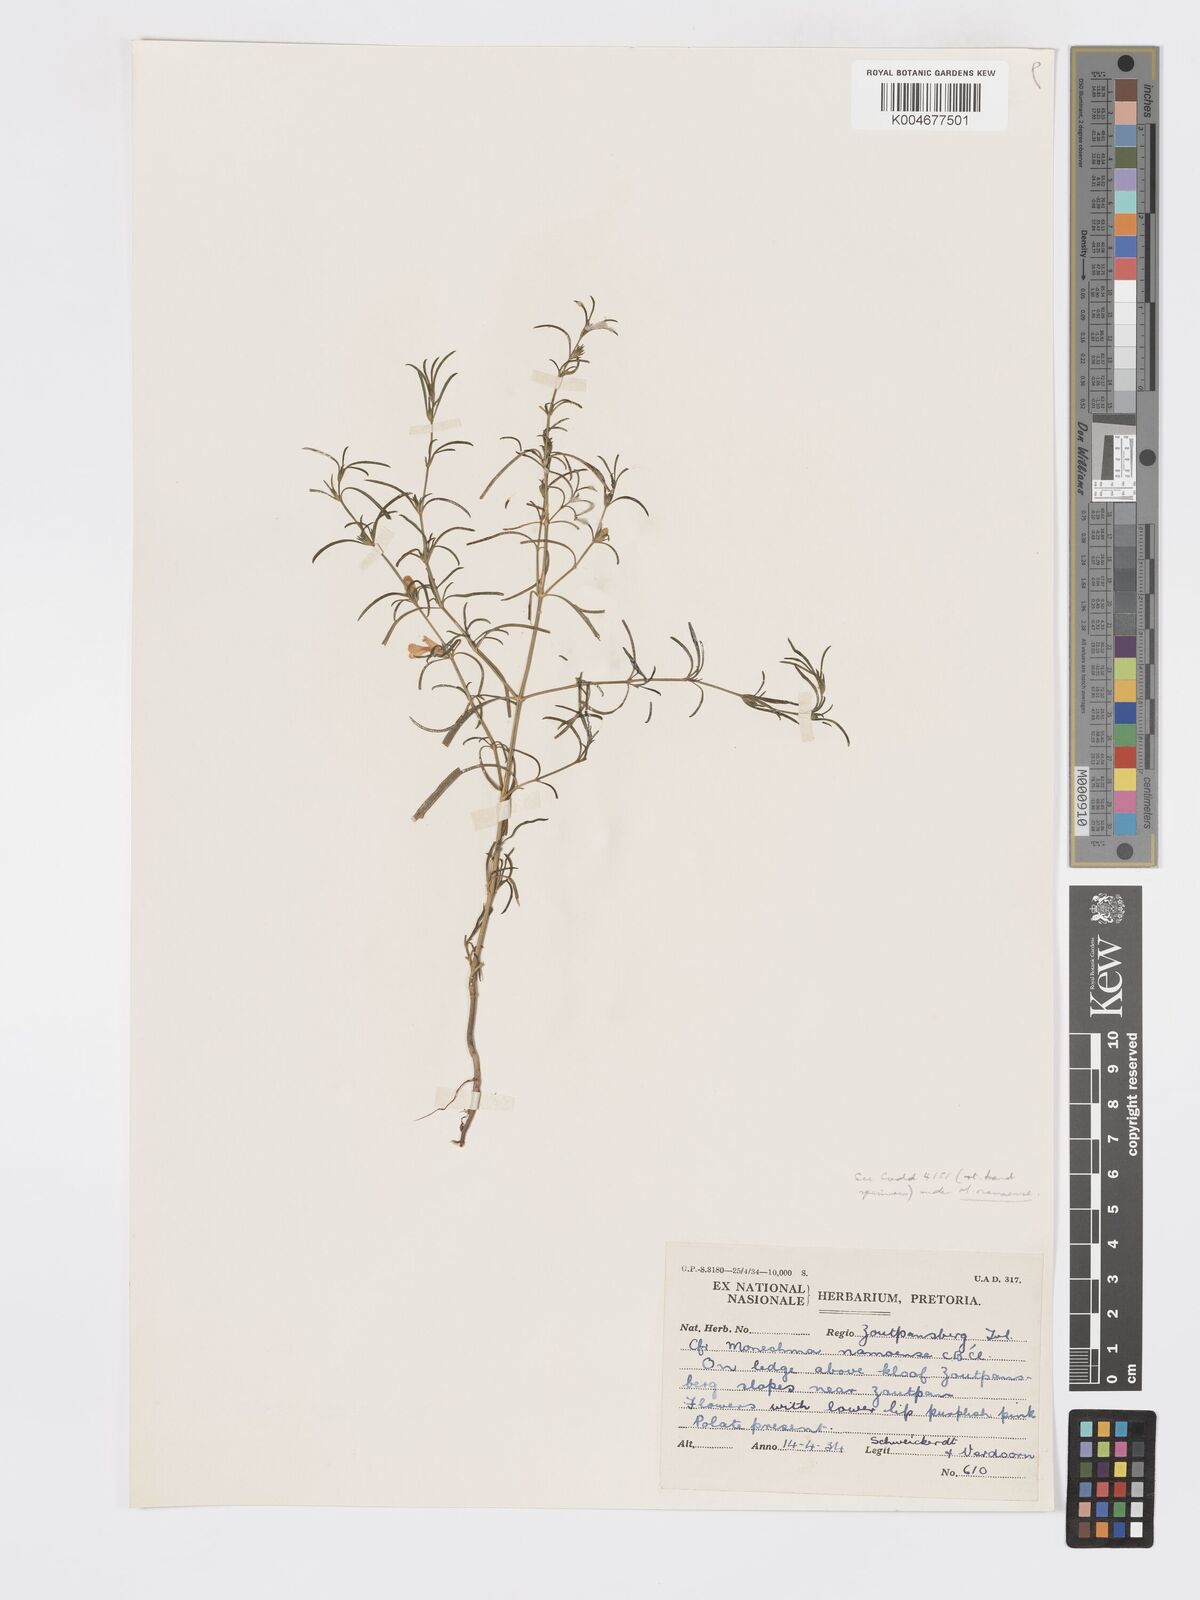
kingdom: Plantae
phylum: Tracheophyta
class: Magnoliopsida
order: Lamiales
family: Acanthaceae
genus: Pogonospermum
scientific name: Pogonospermum
